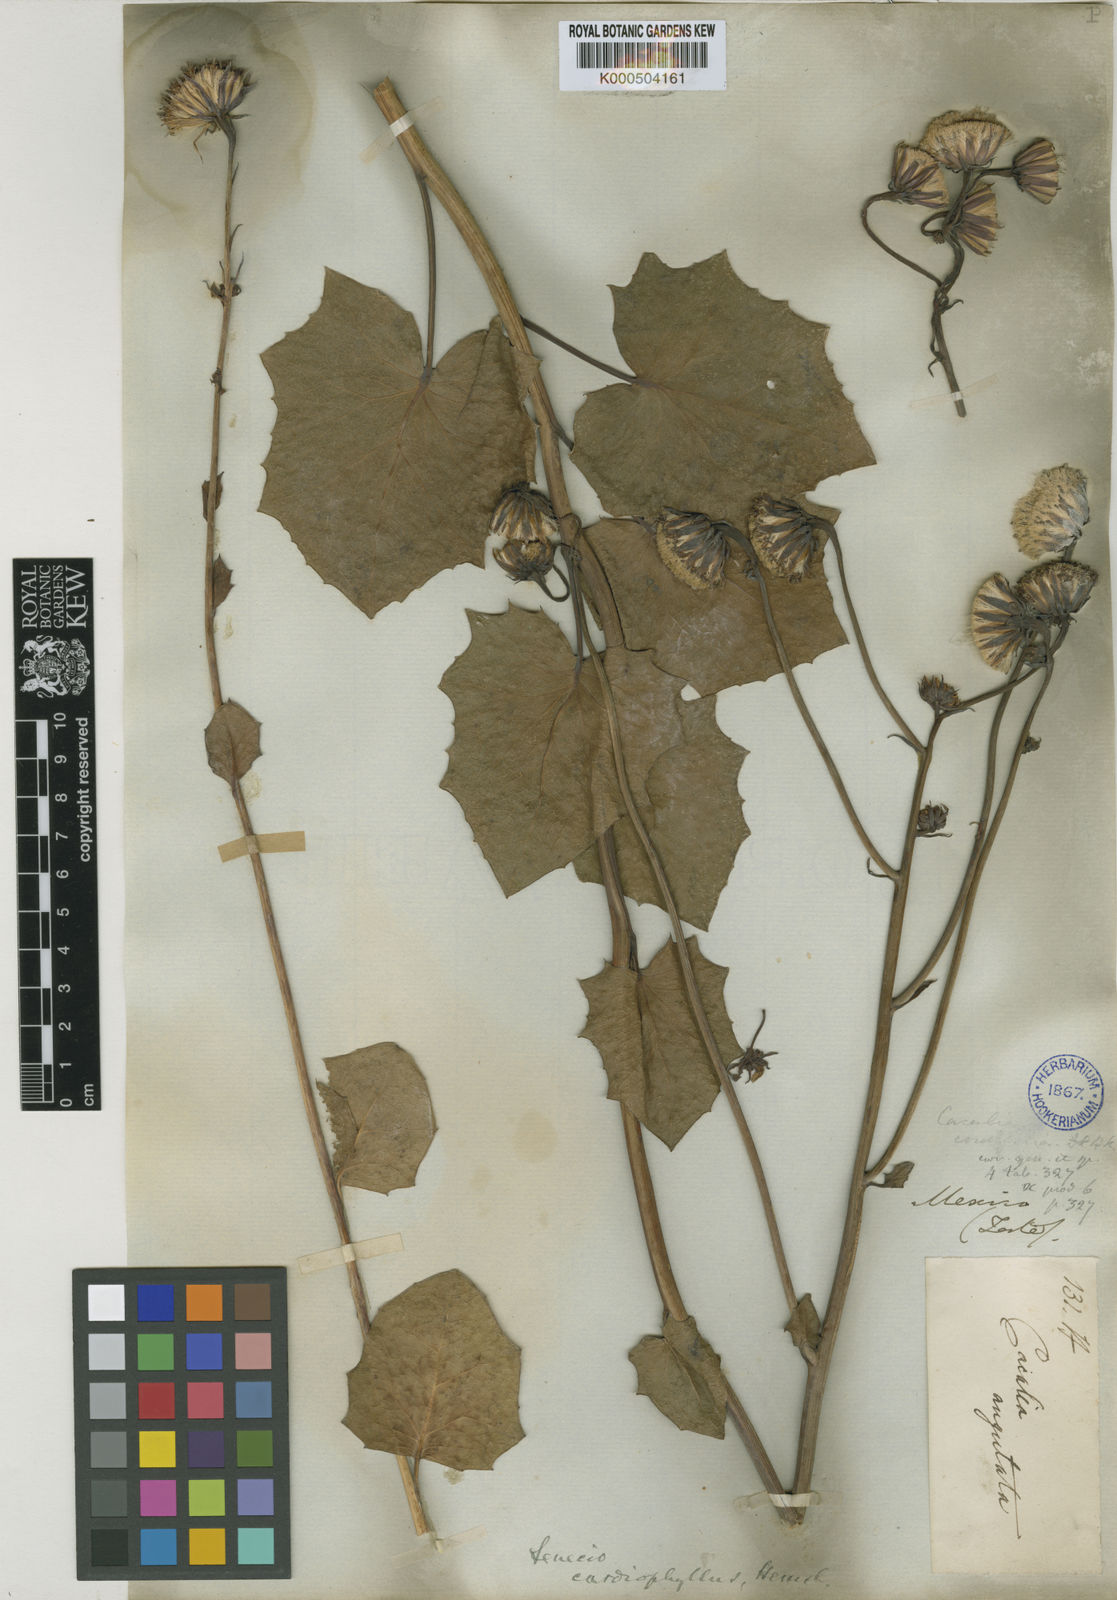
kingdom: Plantae
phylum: Tracheophyta
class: Magnoliopsida
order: Asterales
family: Asteraceae
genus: Roldana
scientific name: Roldana
